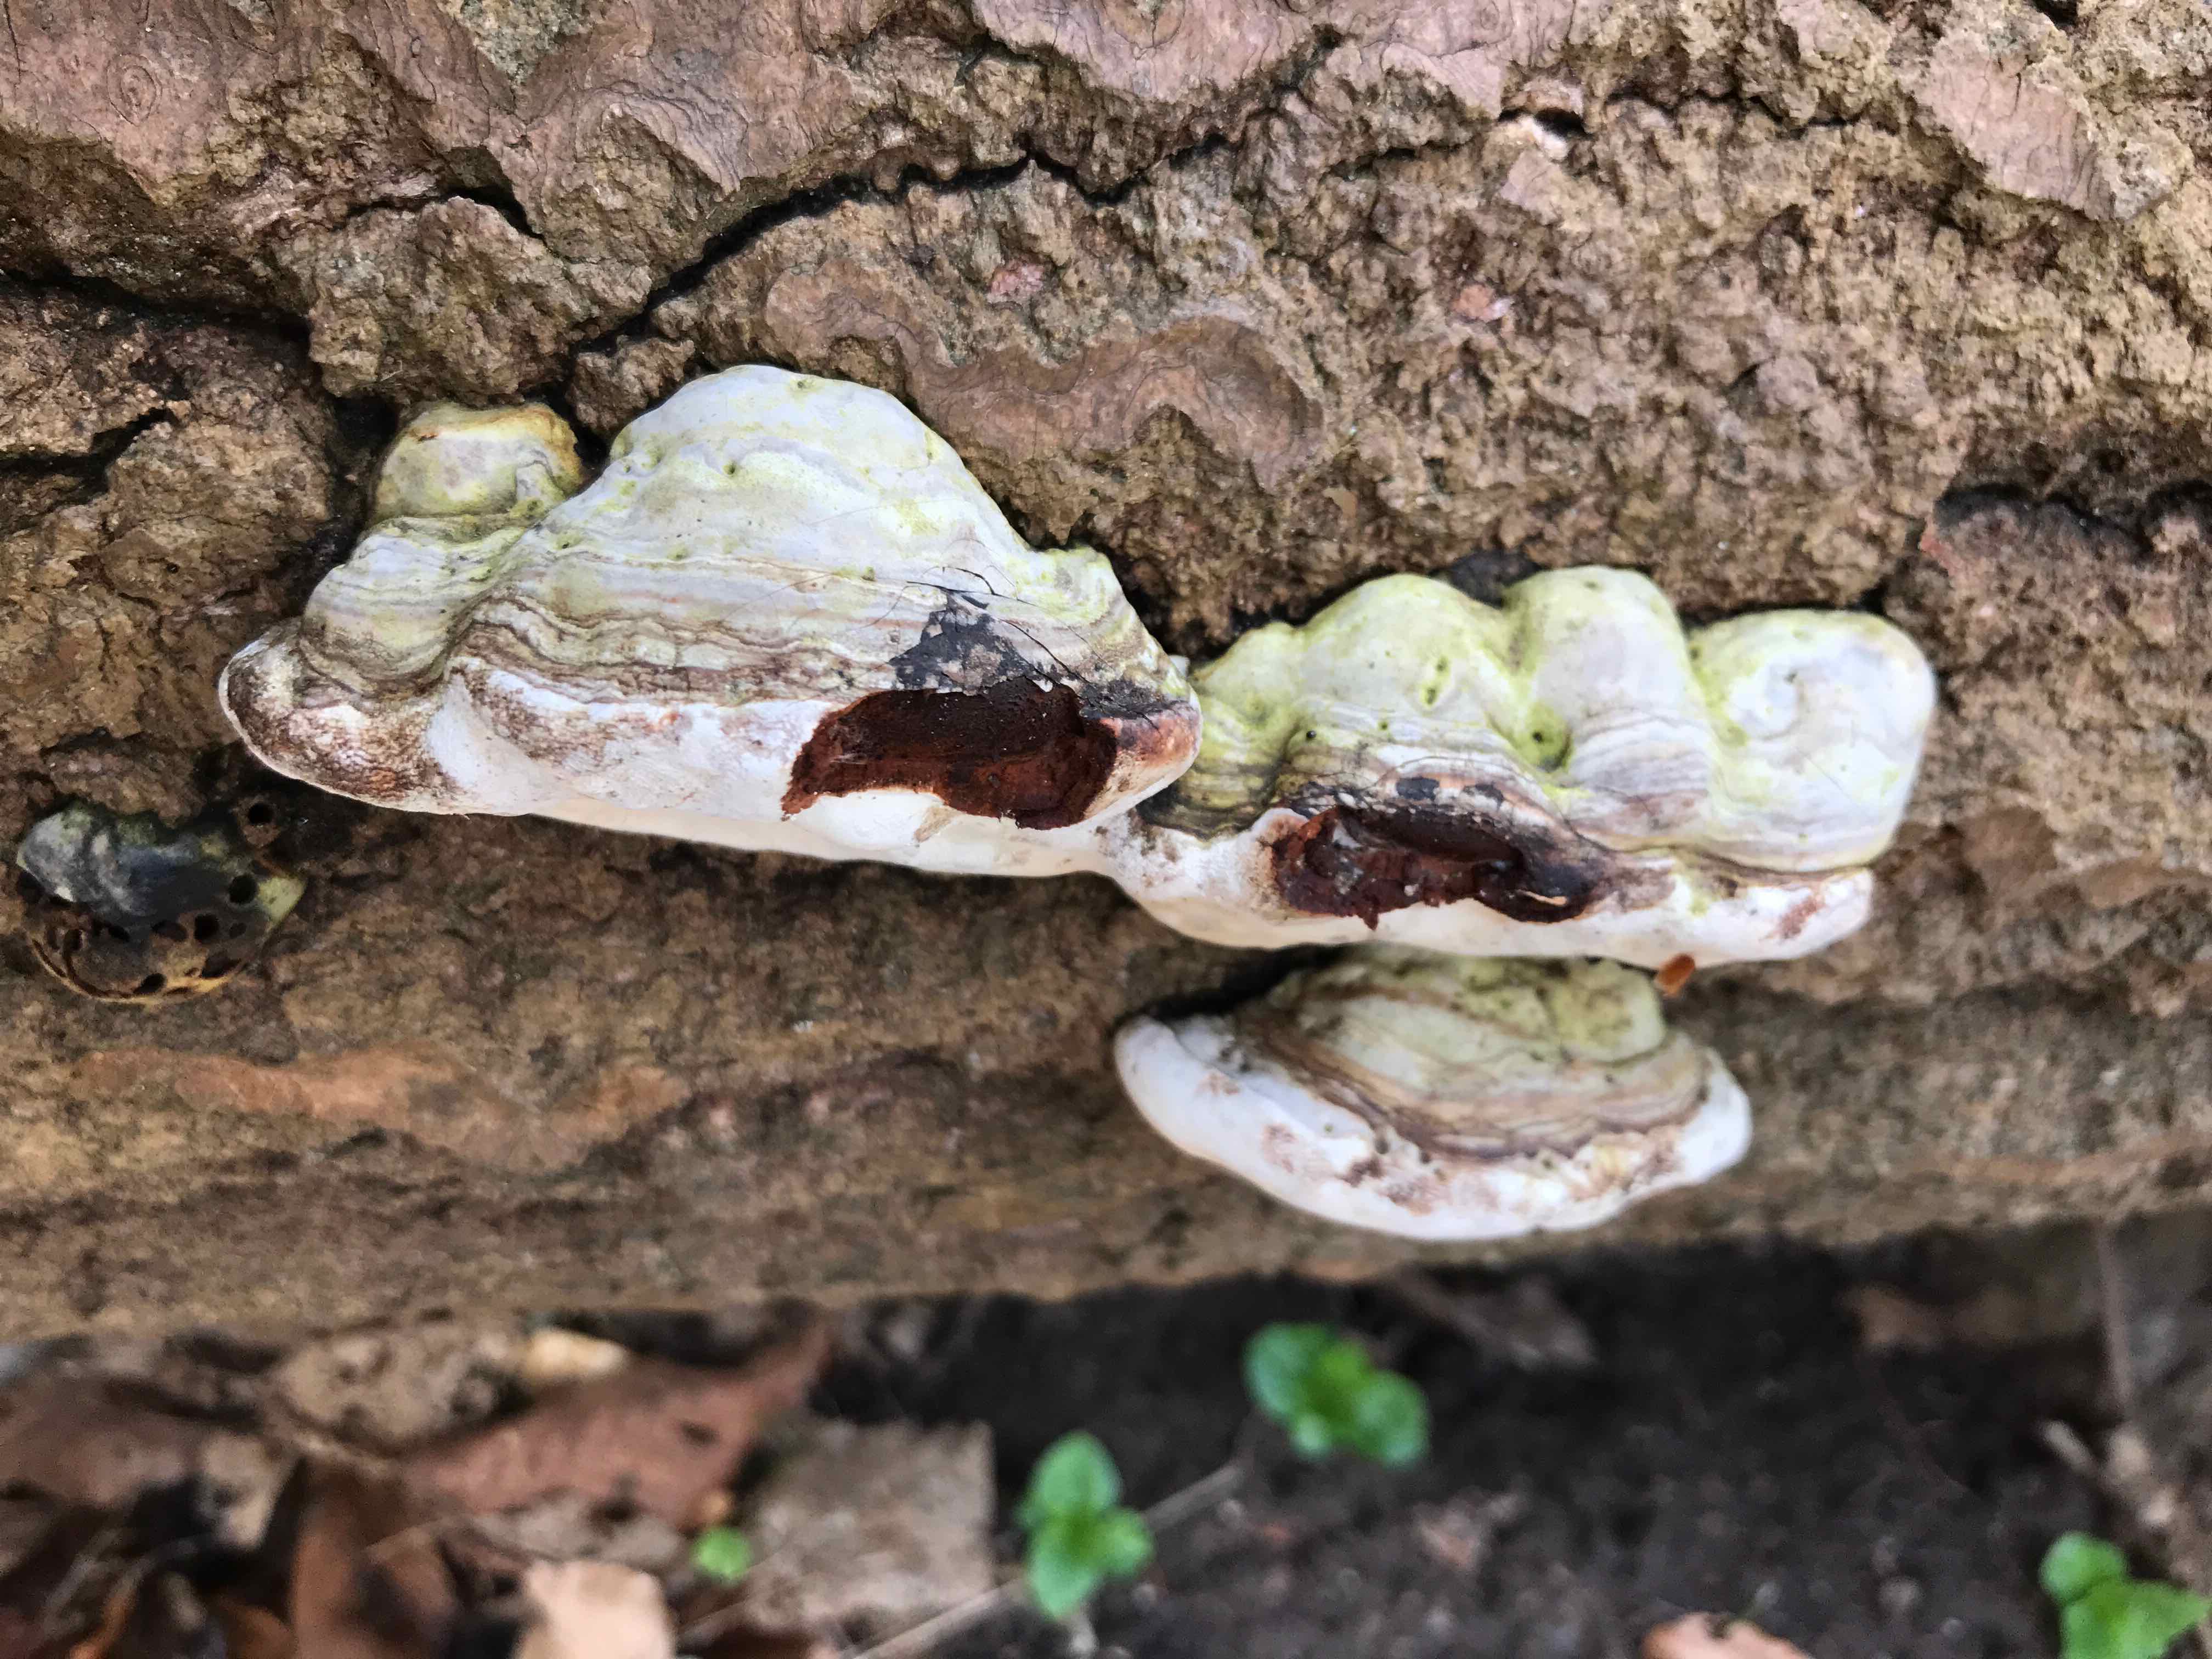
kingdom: Fungi
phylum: Basidiomycota
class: Agaricomycetes
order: Polyporales
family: Polyporaceae
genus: Ganoderma
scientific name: Ganoderma applanatum
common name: flad lakporesvamp
